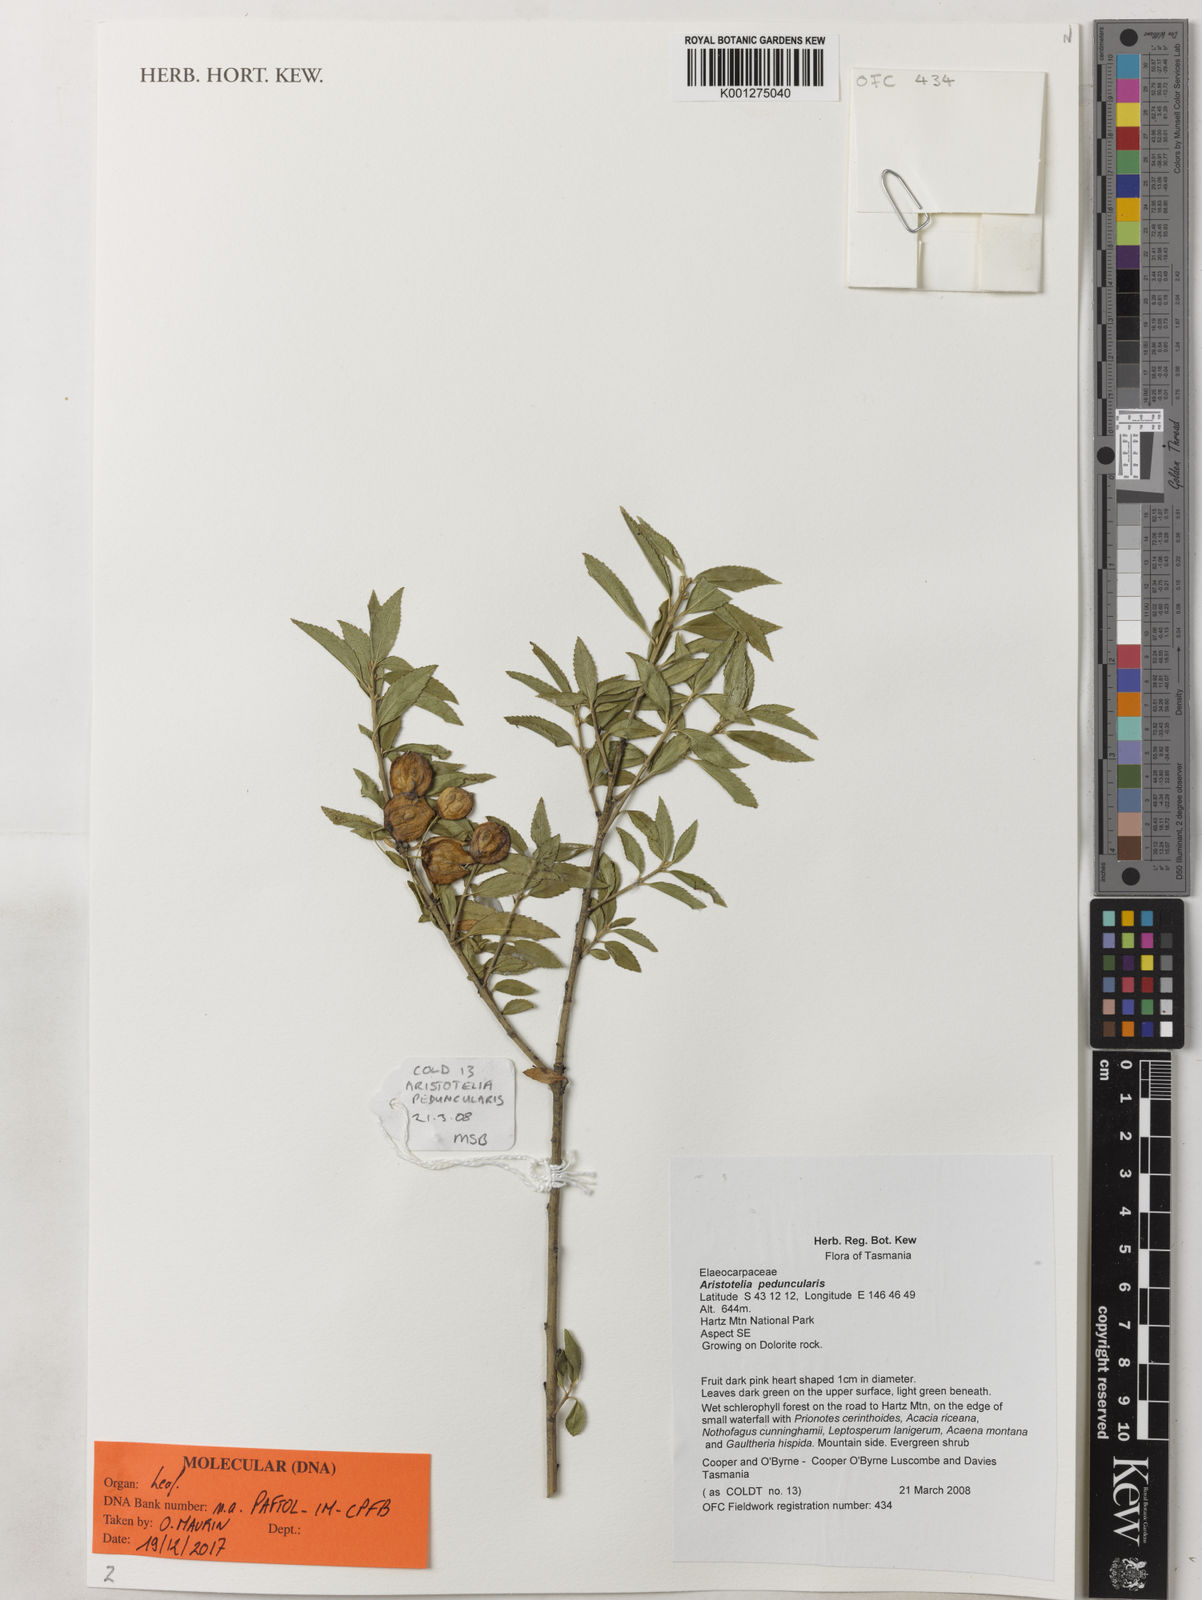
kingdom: Plantae
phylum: Tracheophyta
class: Magnoliopsida
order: Oxalidales
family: Elaeocarpaceae
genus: Aristotelia
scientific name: Aristotelia peduncularis
